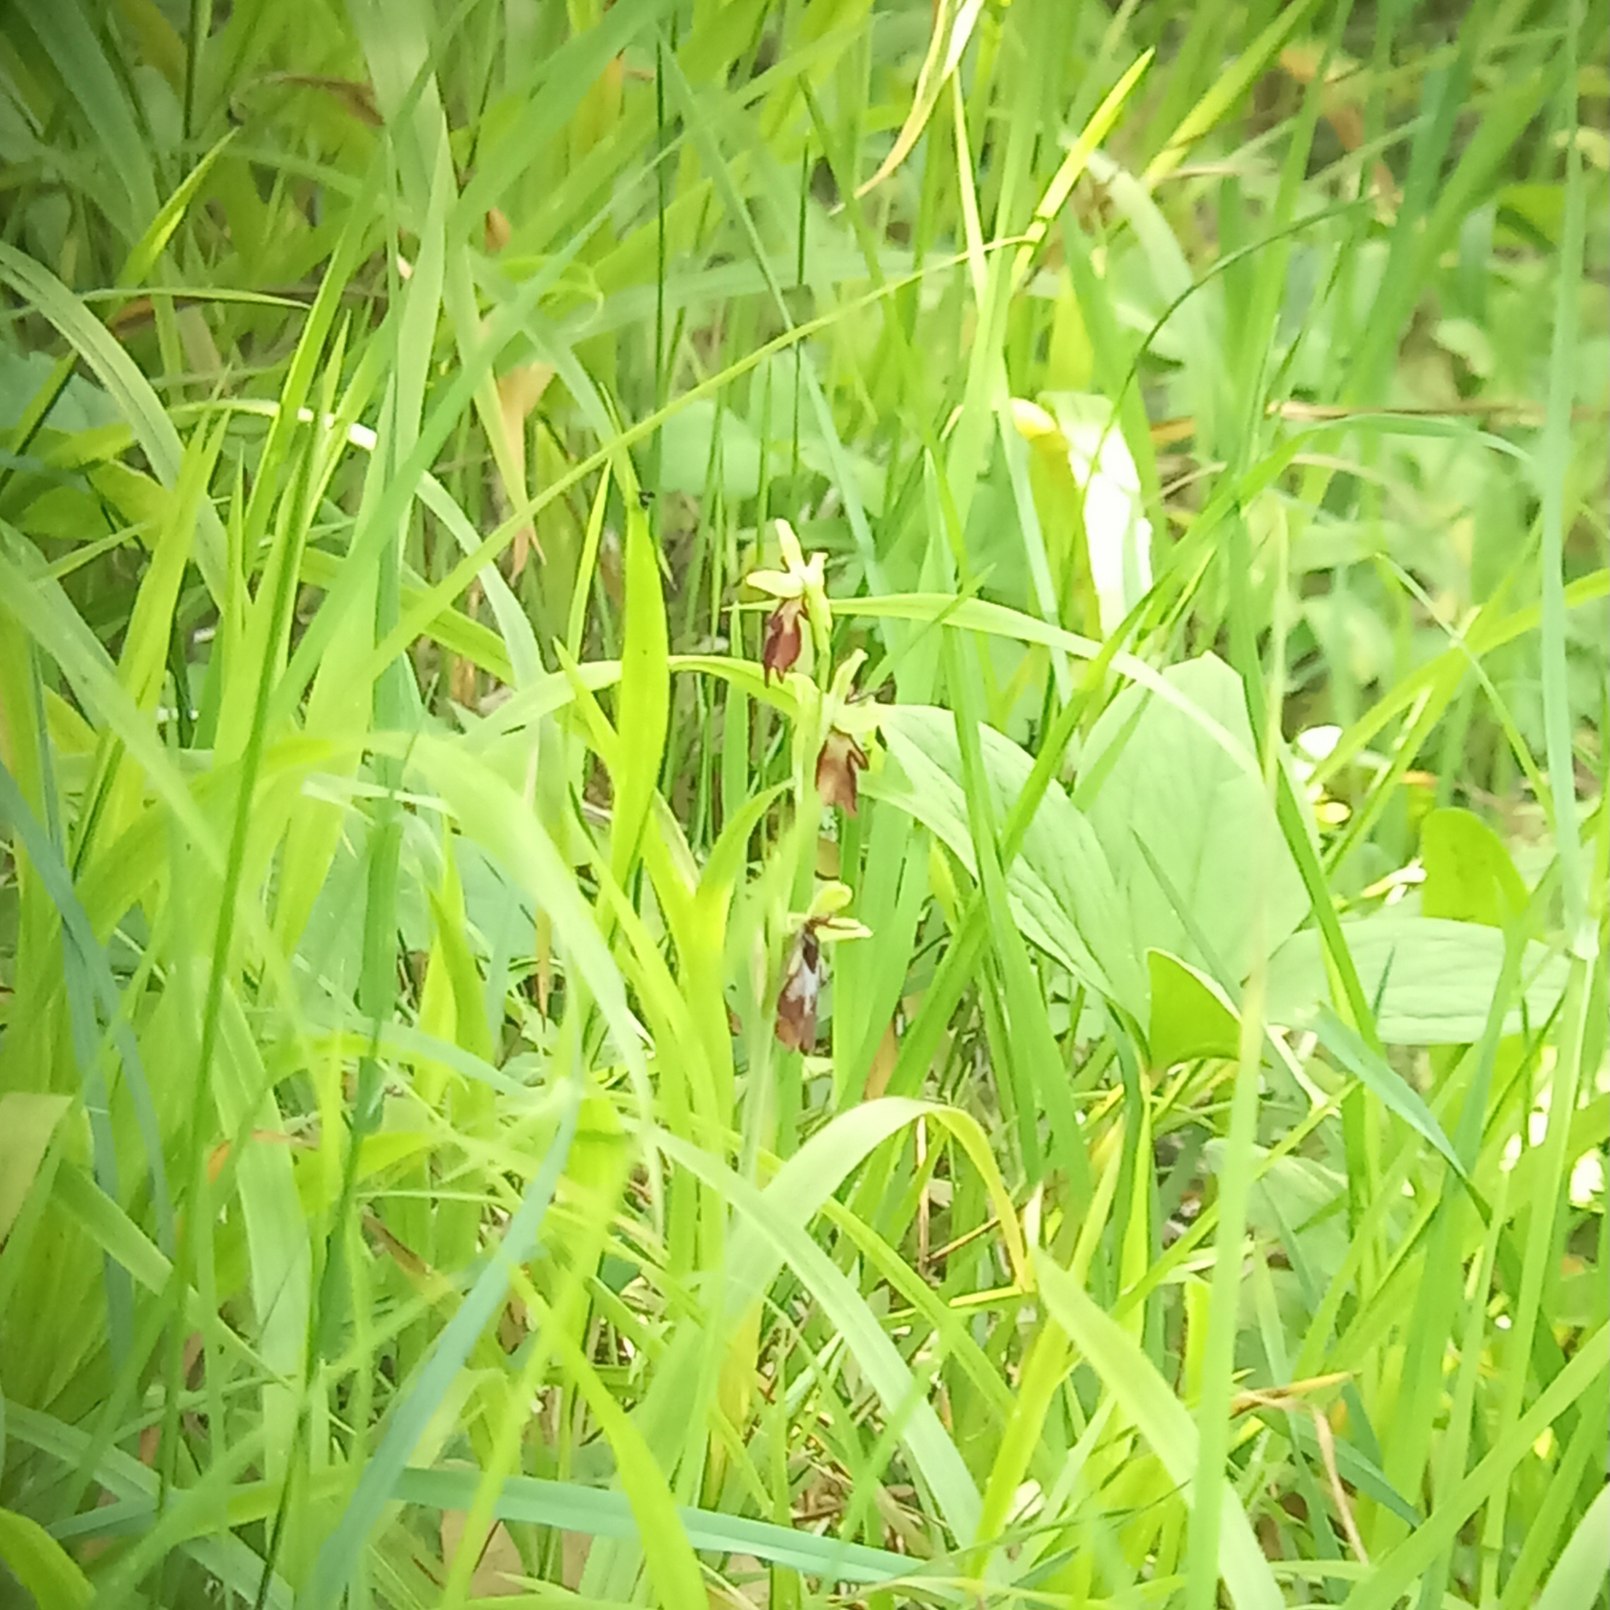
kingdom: Plantae
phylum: Tracheophyta
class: Liliopsida
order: Asparagales
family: Orchidaceae
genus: Ophrys
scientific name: Ophrys insectifera
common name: Flueblomst
